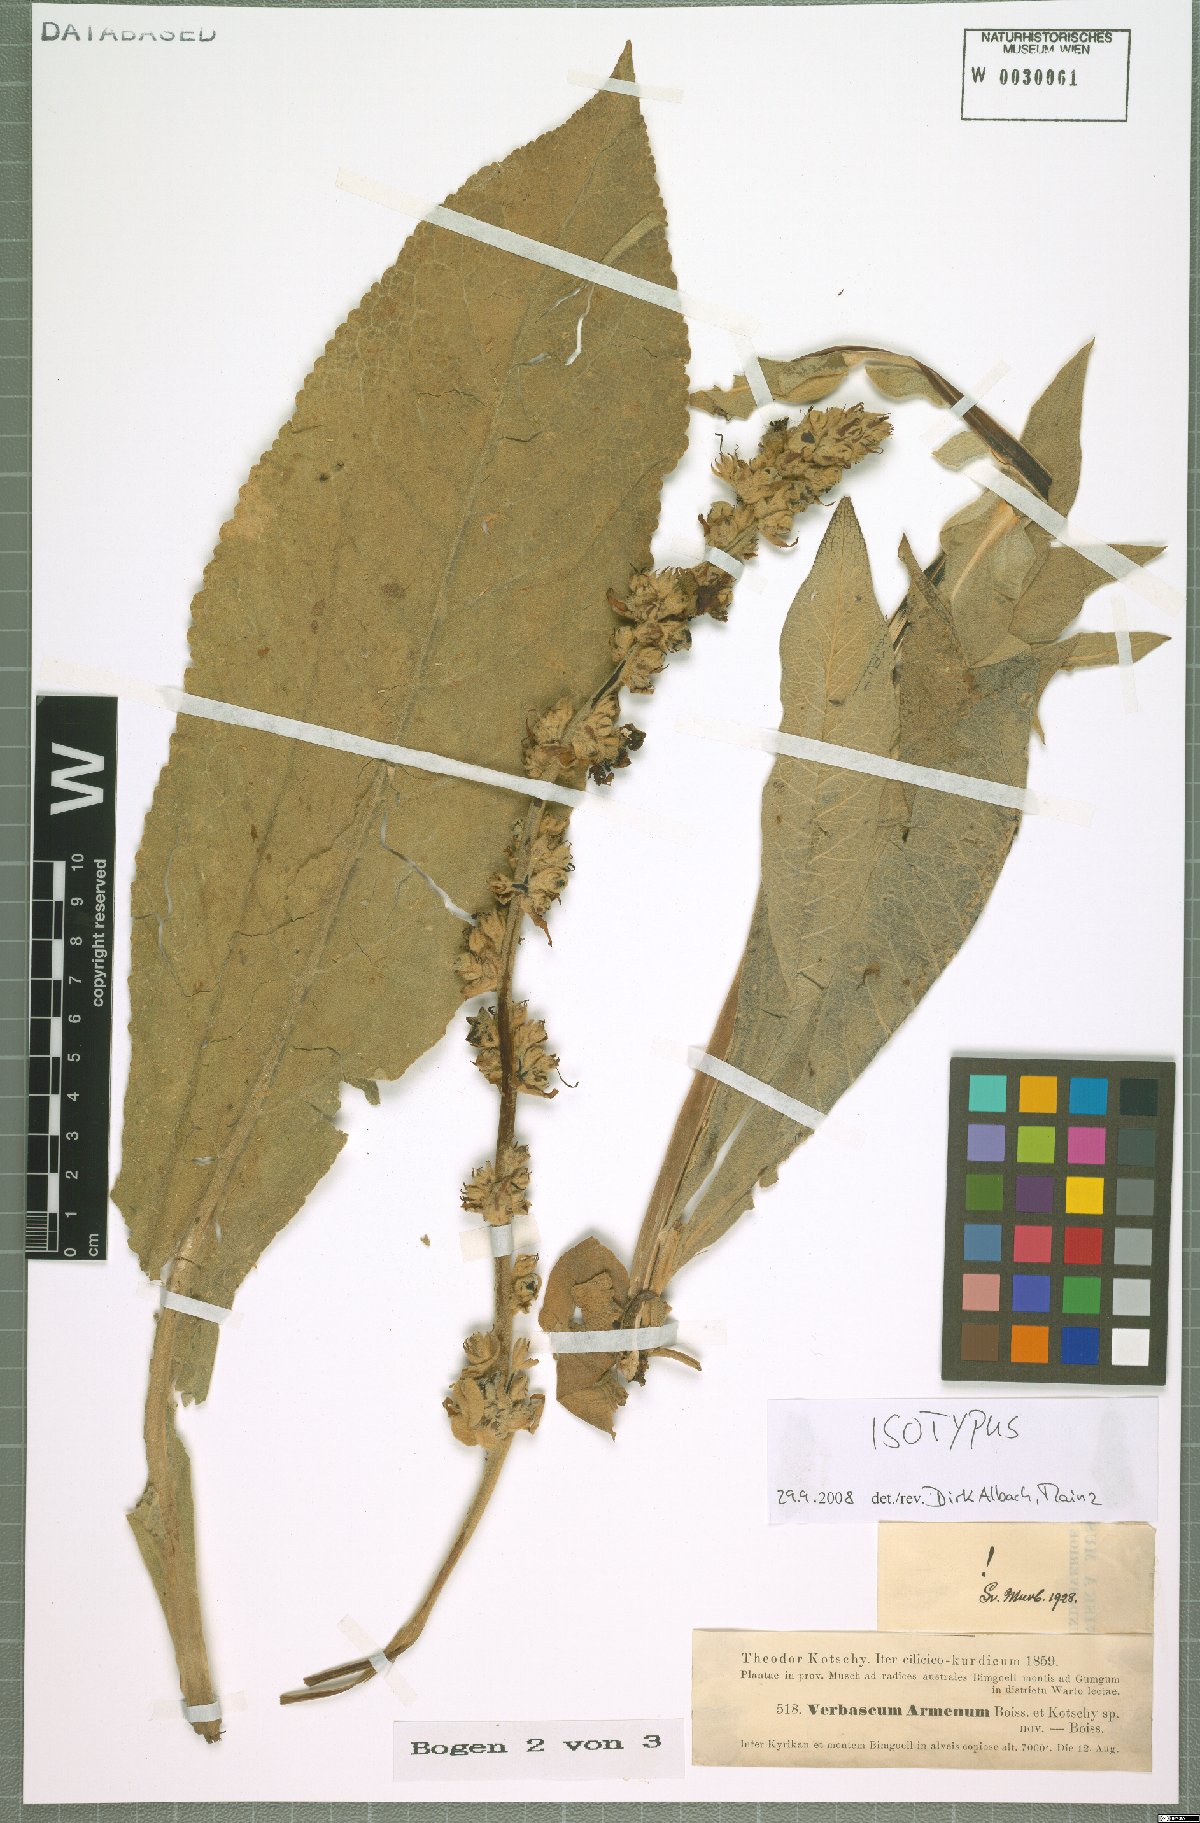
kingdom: Plantae
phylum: Tracheophyta
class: Magnoliopsida
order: Lamiales
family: Scrophulariaceae
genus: Verbascum
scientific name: Verbascum armenum
